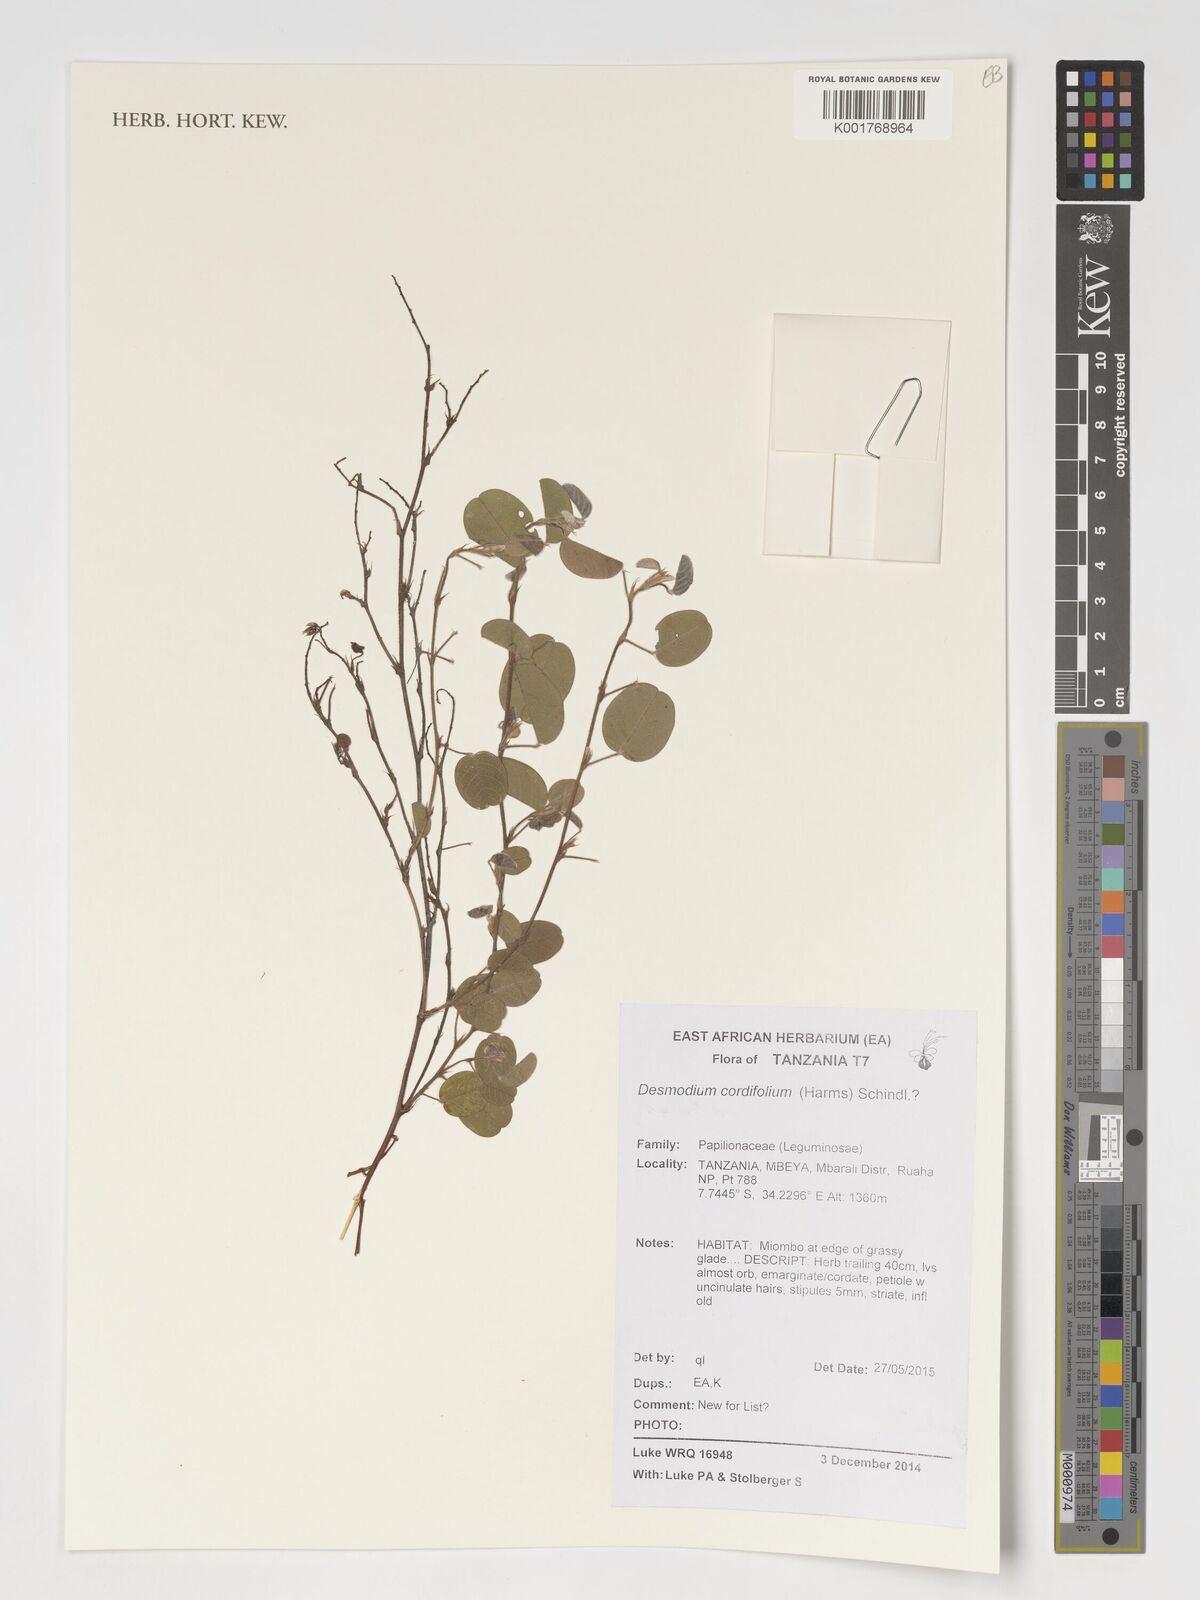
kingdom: Plantae
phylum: Tracheophyta
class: Magnoliopsida
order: Fabales
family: Fabaceae
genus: Grona
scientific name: Grona cordifolia
